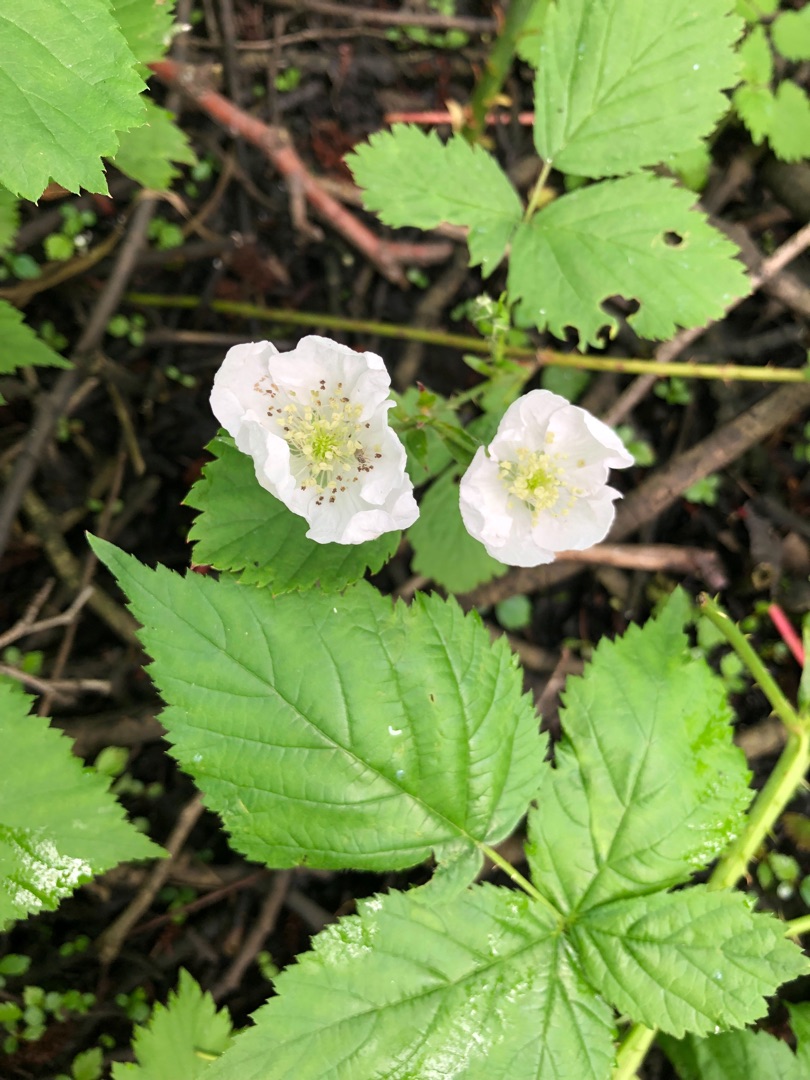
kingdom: Plantae
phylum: Tracheophyta
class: Magnoliopsida
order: Rosales
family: Rosaceae
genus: Rubus
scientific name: Rubus
